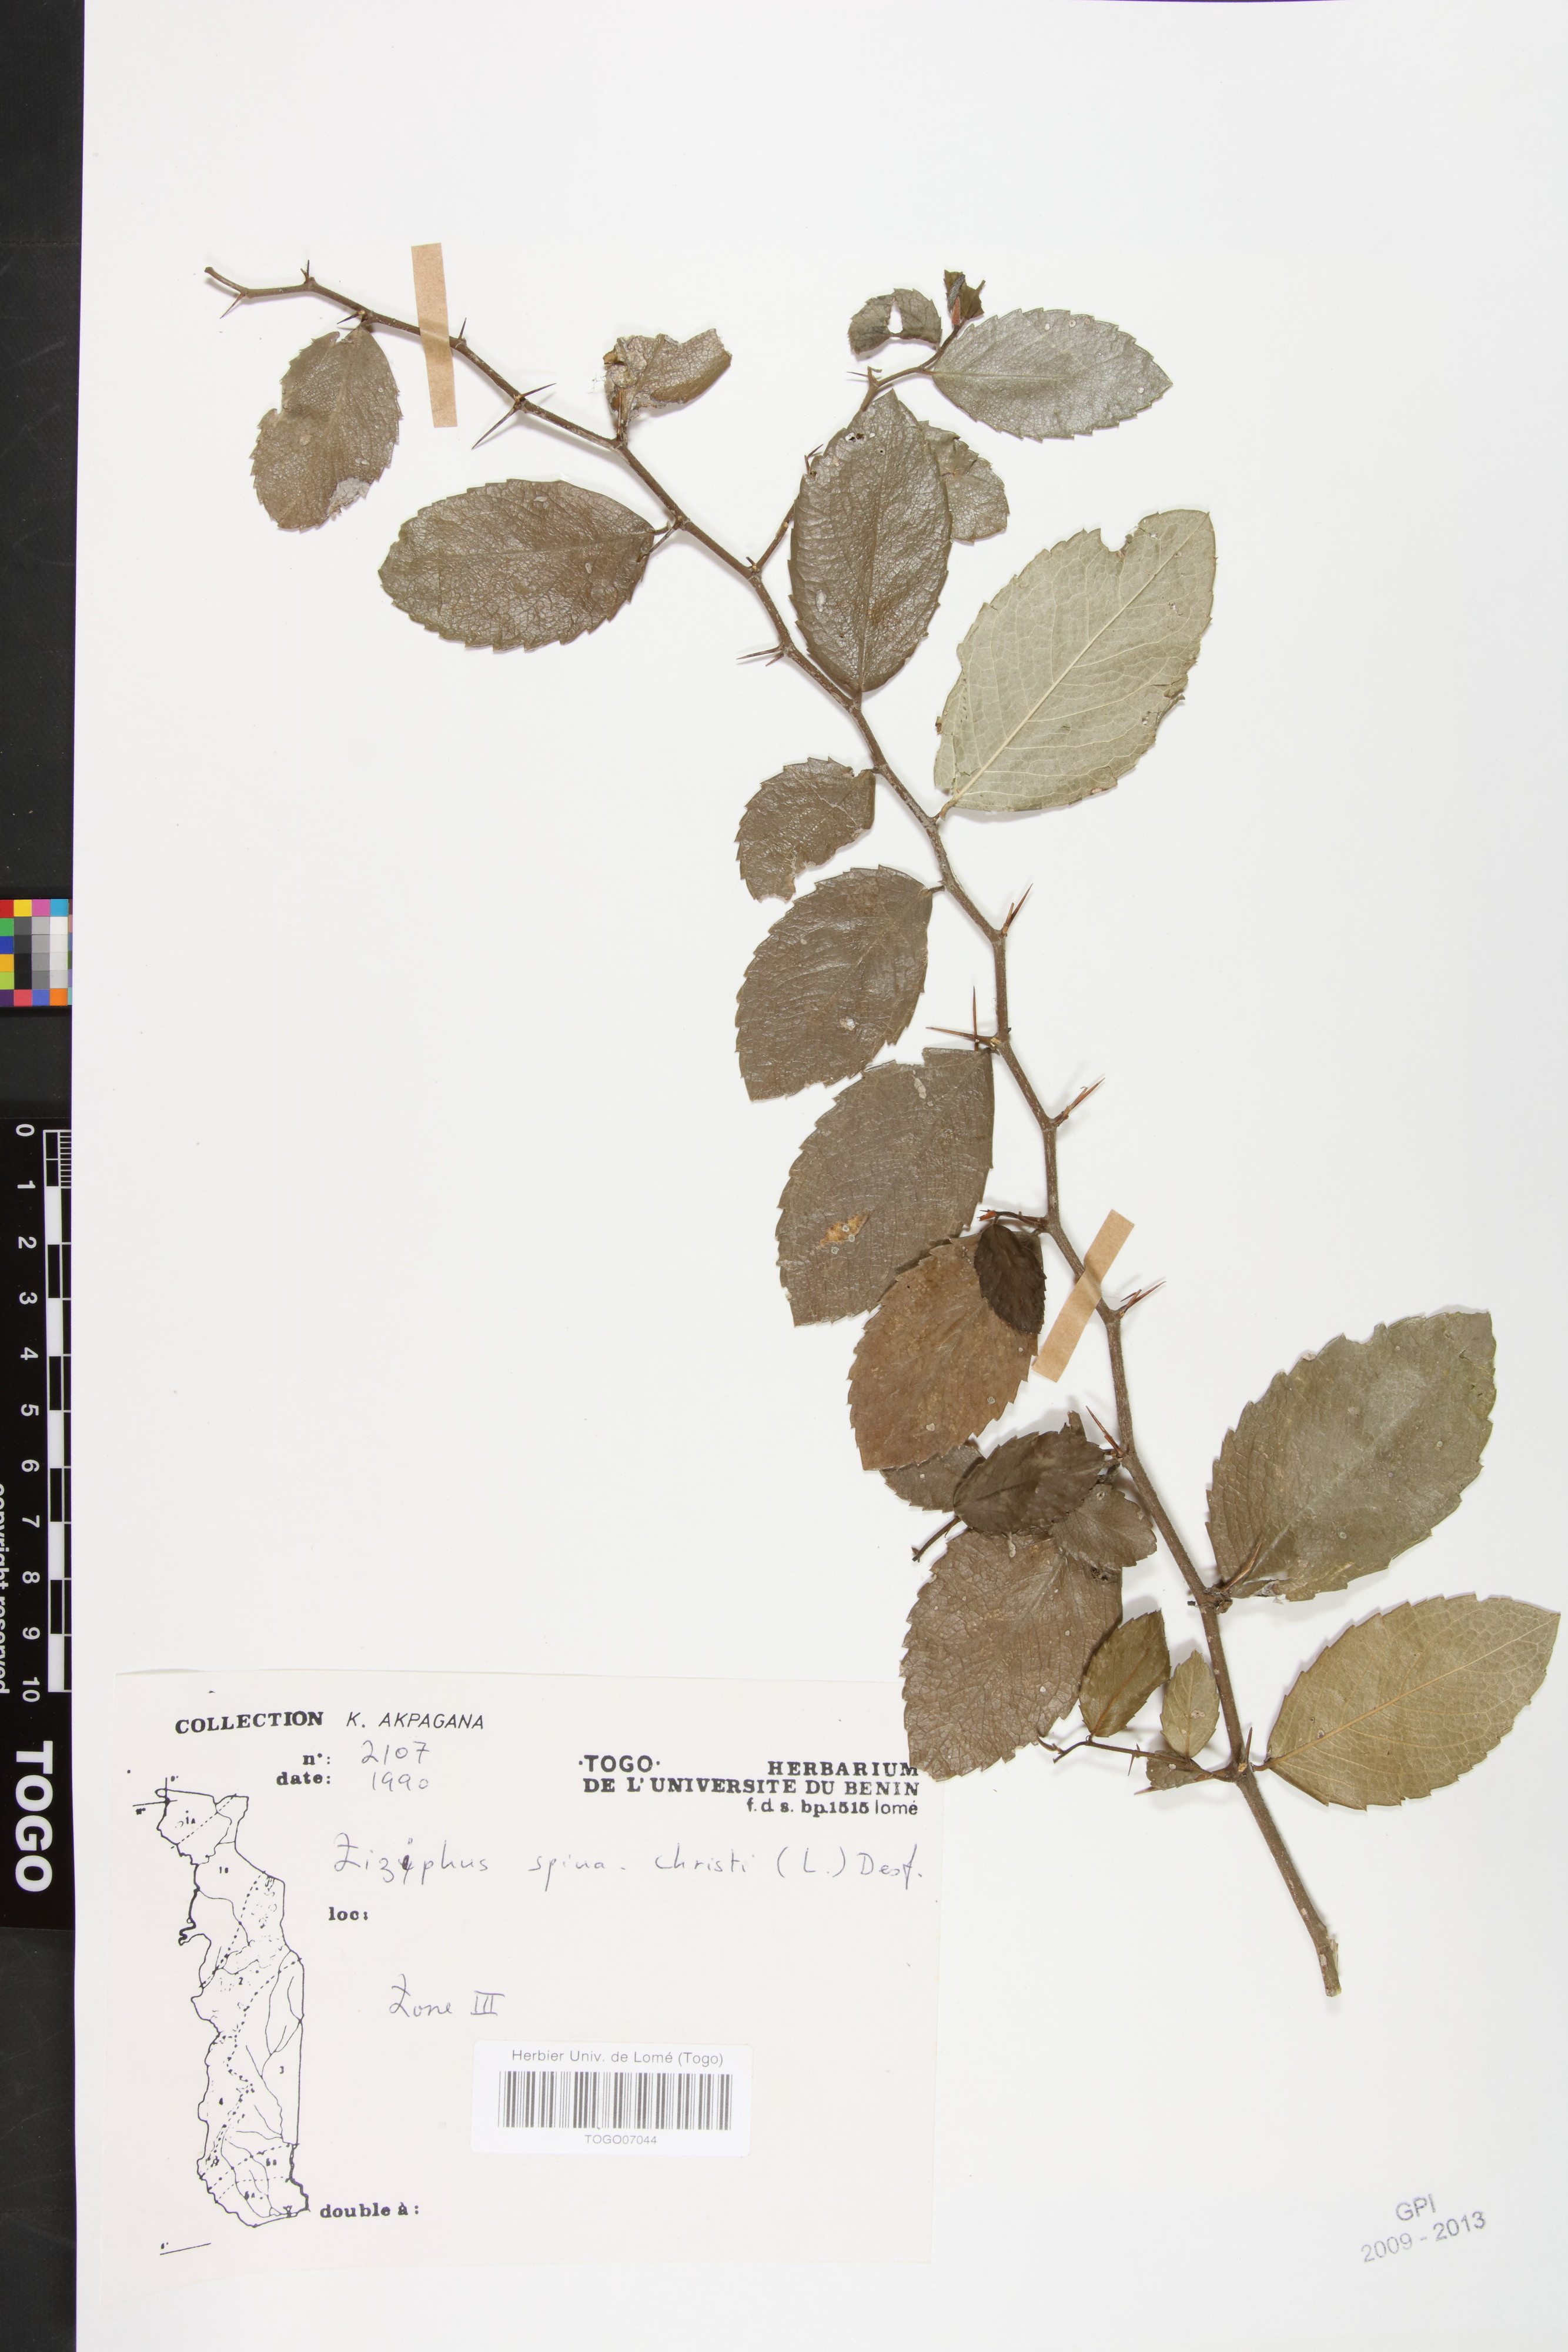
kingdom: Plantae
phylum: Tracheophyta
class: Magnoliopsida
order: Rosales
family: Rhamnaceae
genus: Ziziphus
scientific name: Ziziphus spina-christi
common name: Syrian christ-thorn
